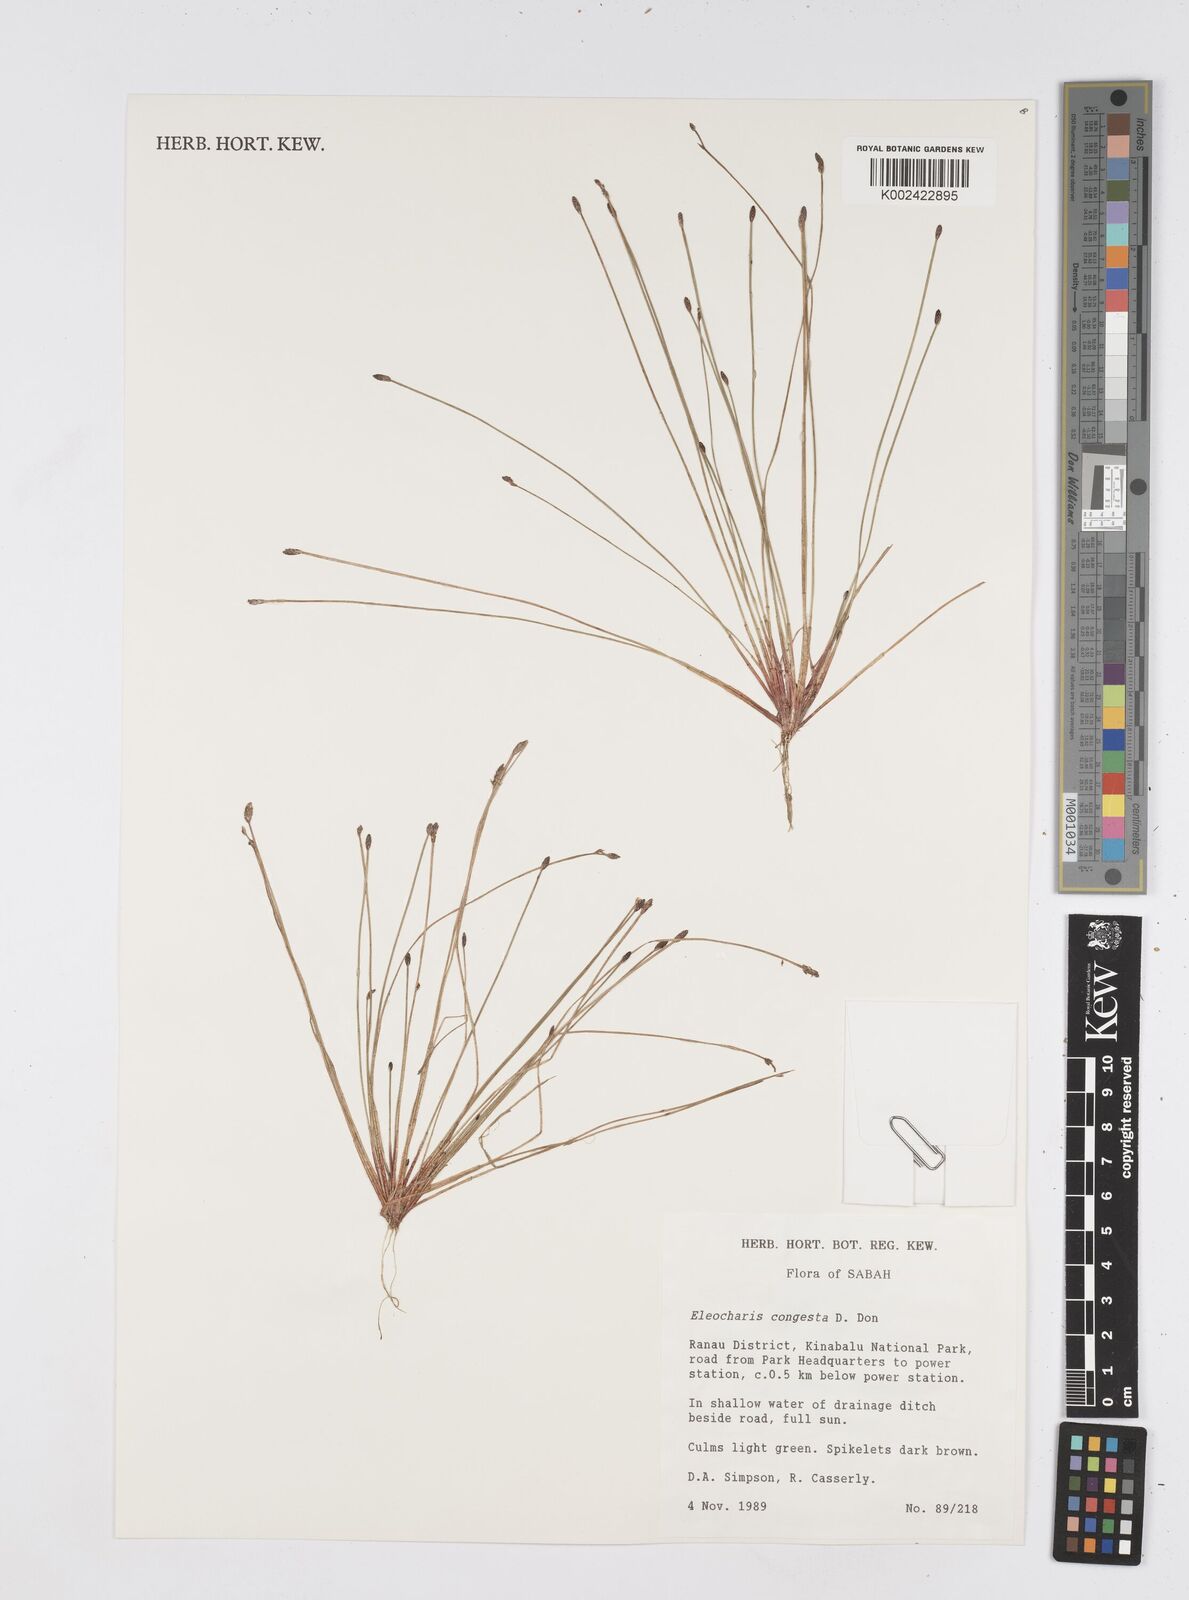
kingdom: Plantae
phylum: Tracheophyta
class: Liliopsida
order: Poales
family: Cyperaceae
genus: Eleocharis
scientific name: Eleocharis congesta
